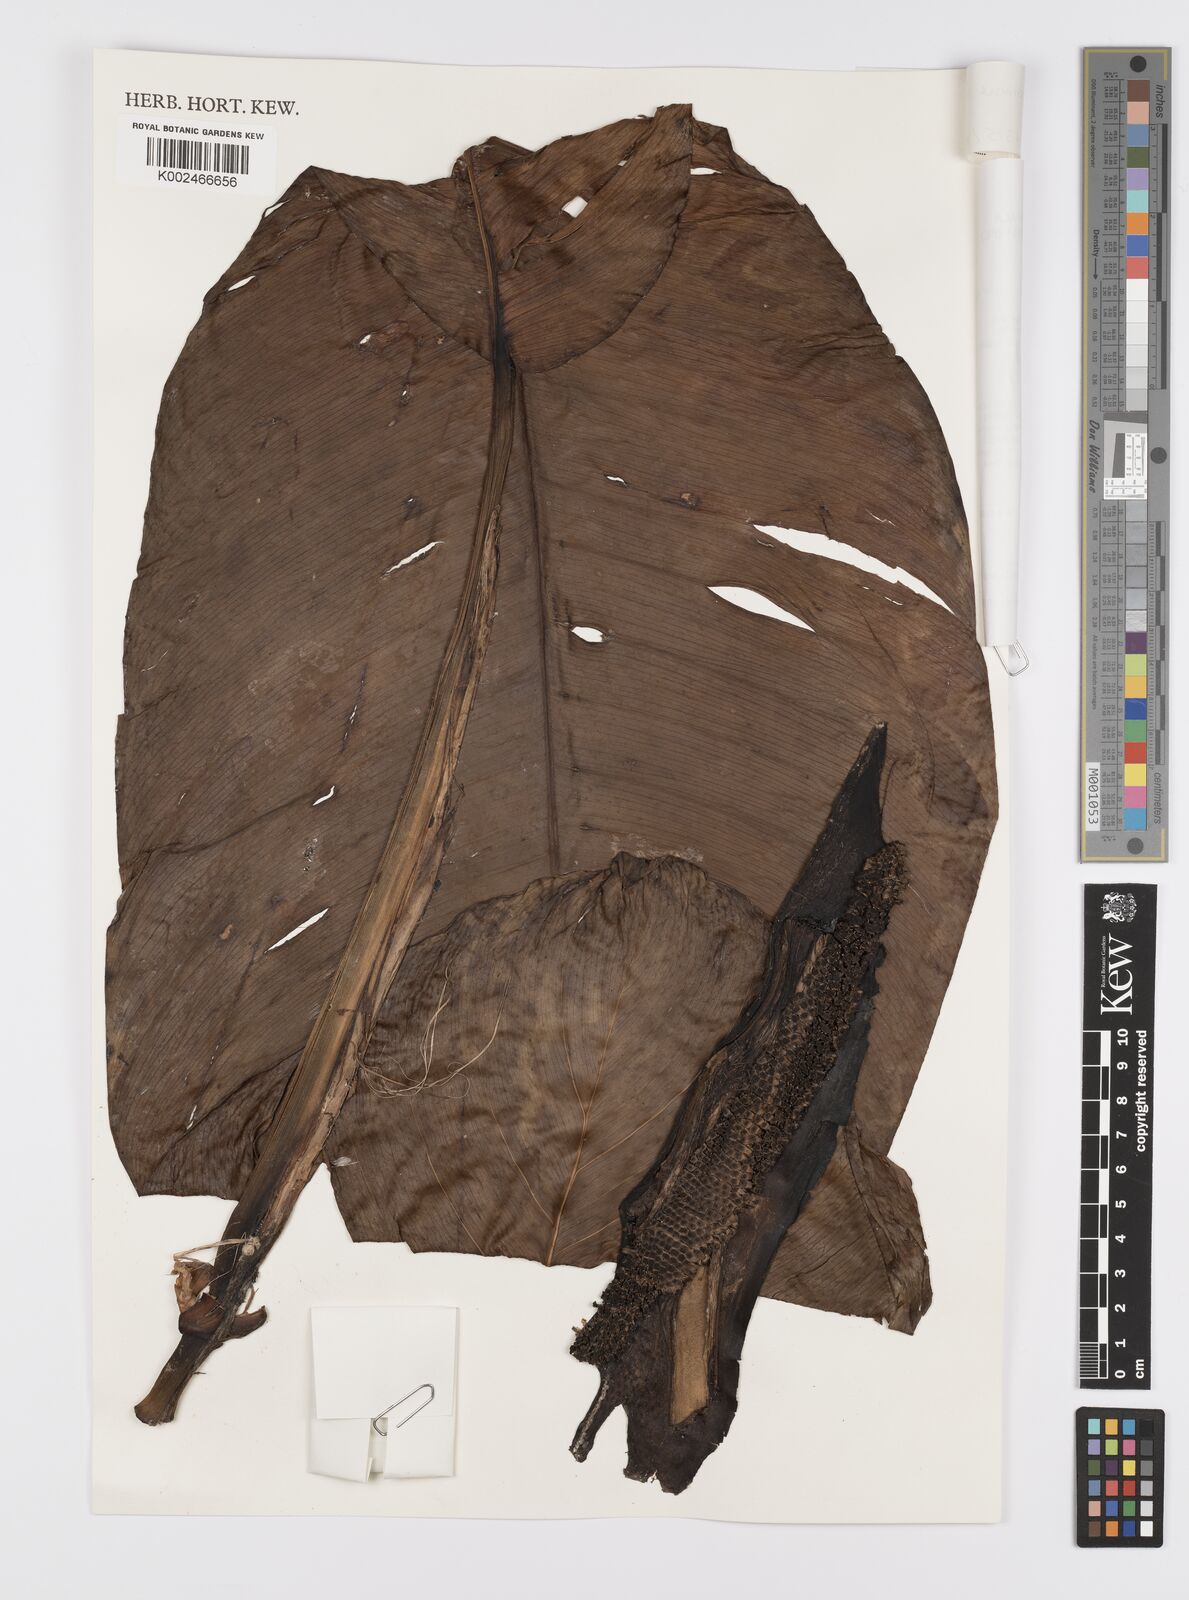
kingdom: Plantae
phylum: Tracheophyta
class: Liliopsida
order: Alismatales
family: Araceae
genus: Scindapsus
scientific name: Scindapsus altissimus
